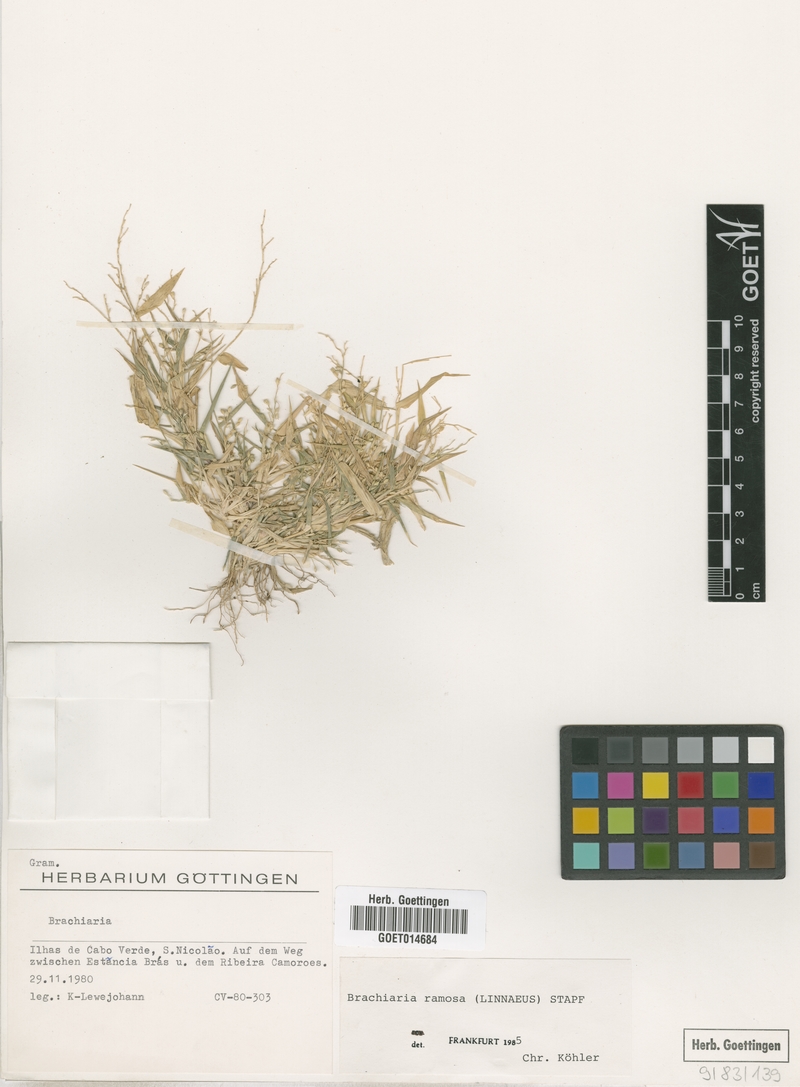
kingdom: Plantae
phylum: Tracheophyta
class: Liliopsida
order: Poales
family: Poaceae
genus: Urochloa
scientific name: Urochloa ramosa
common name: Browntop millet
